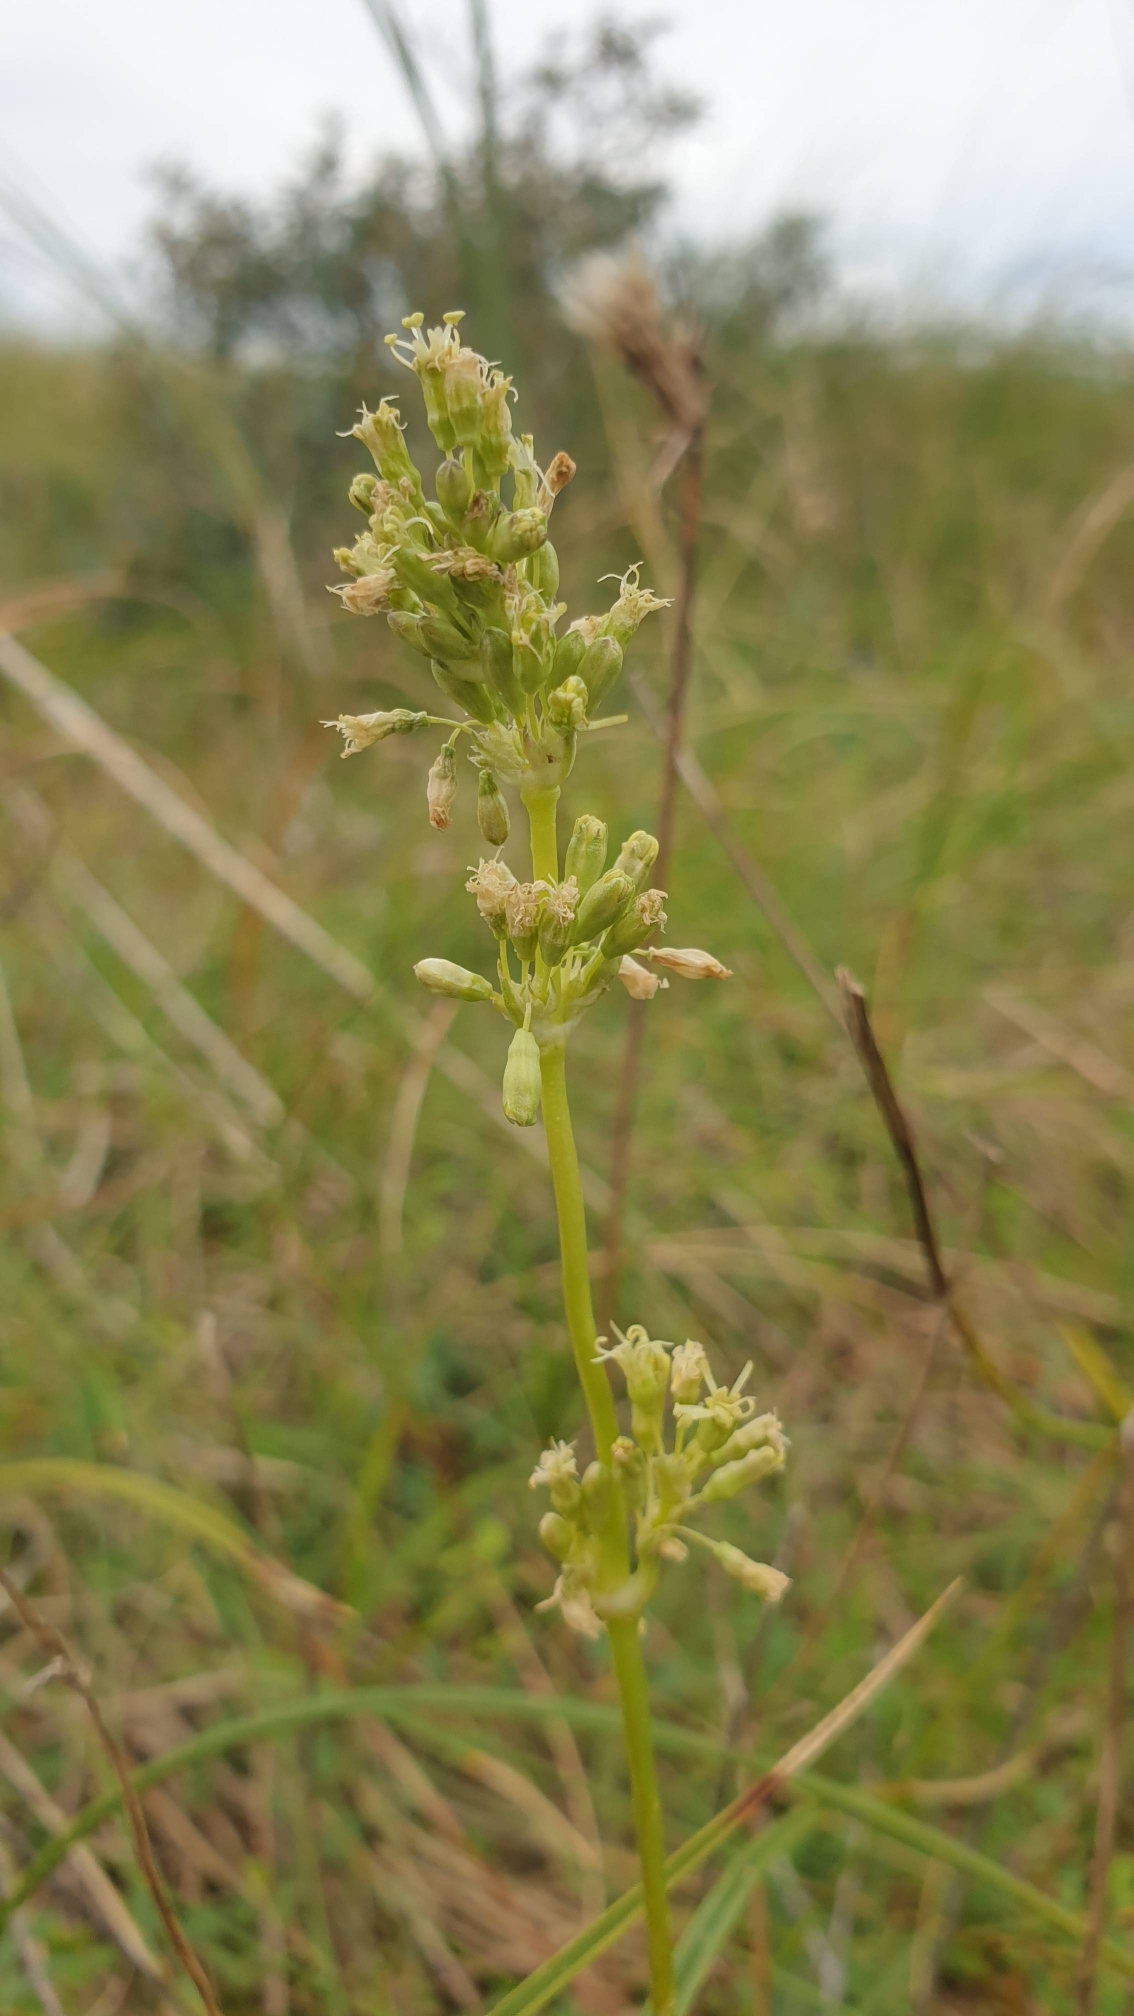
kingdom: Plantae
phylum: Tracheophyta
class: Magnoliopsida
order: Caryophyllales
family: Caryophyllaceae
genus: Silene
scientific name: Silene otites
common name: Klit-limurt
